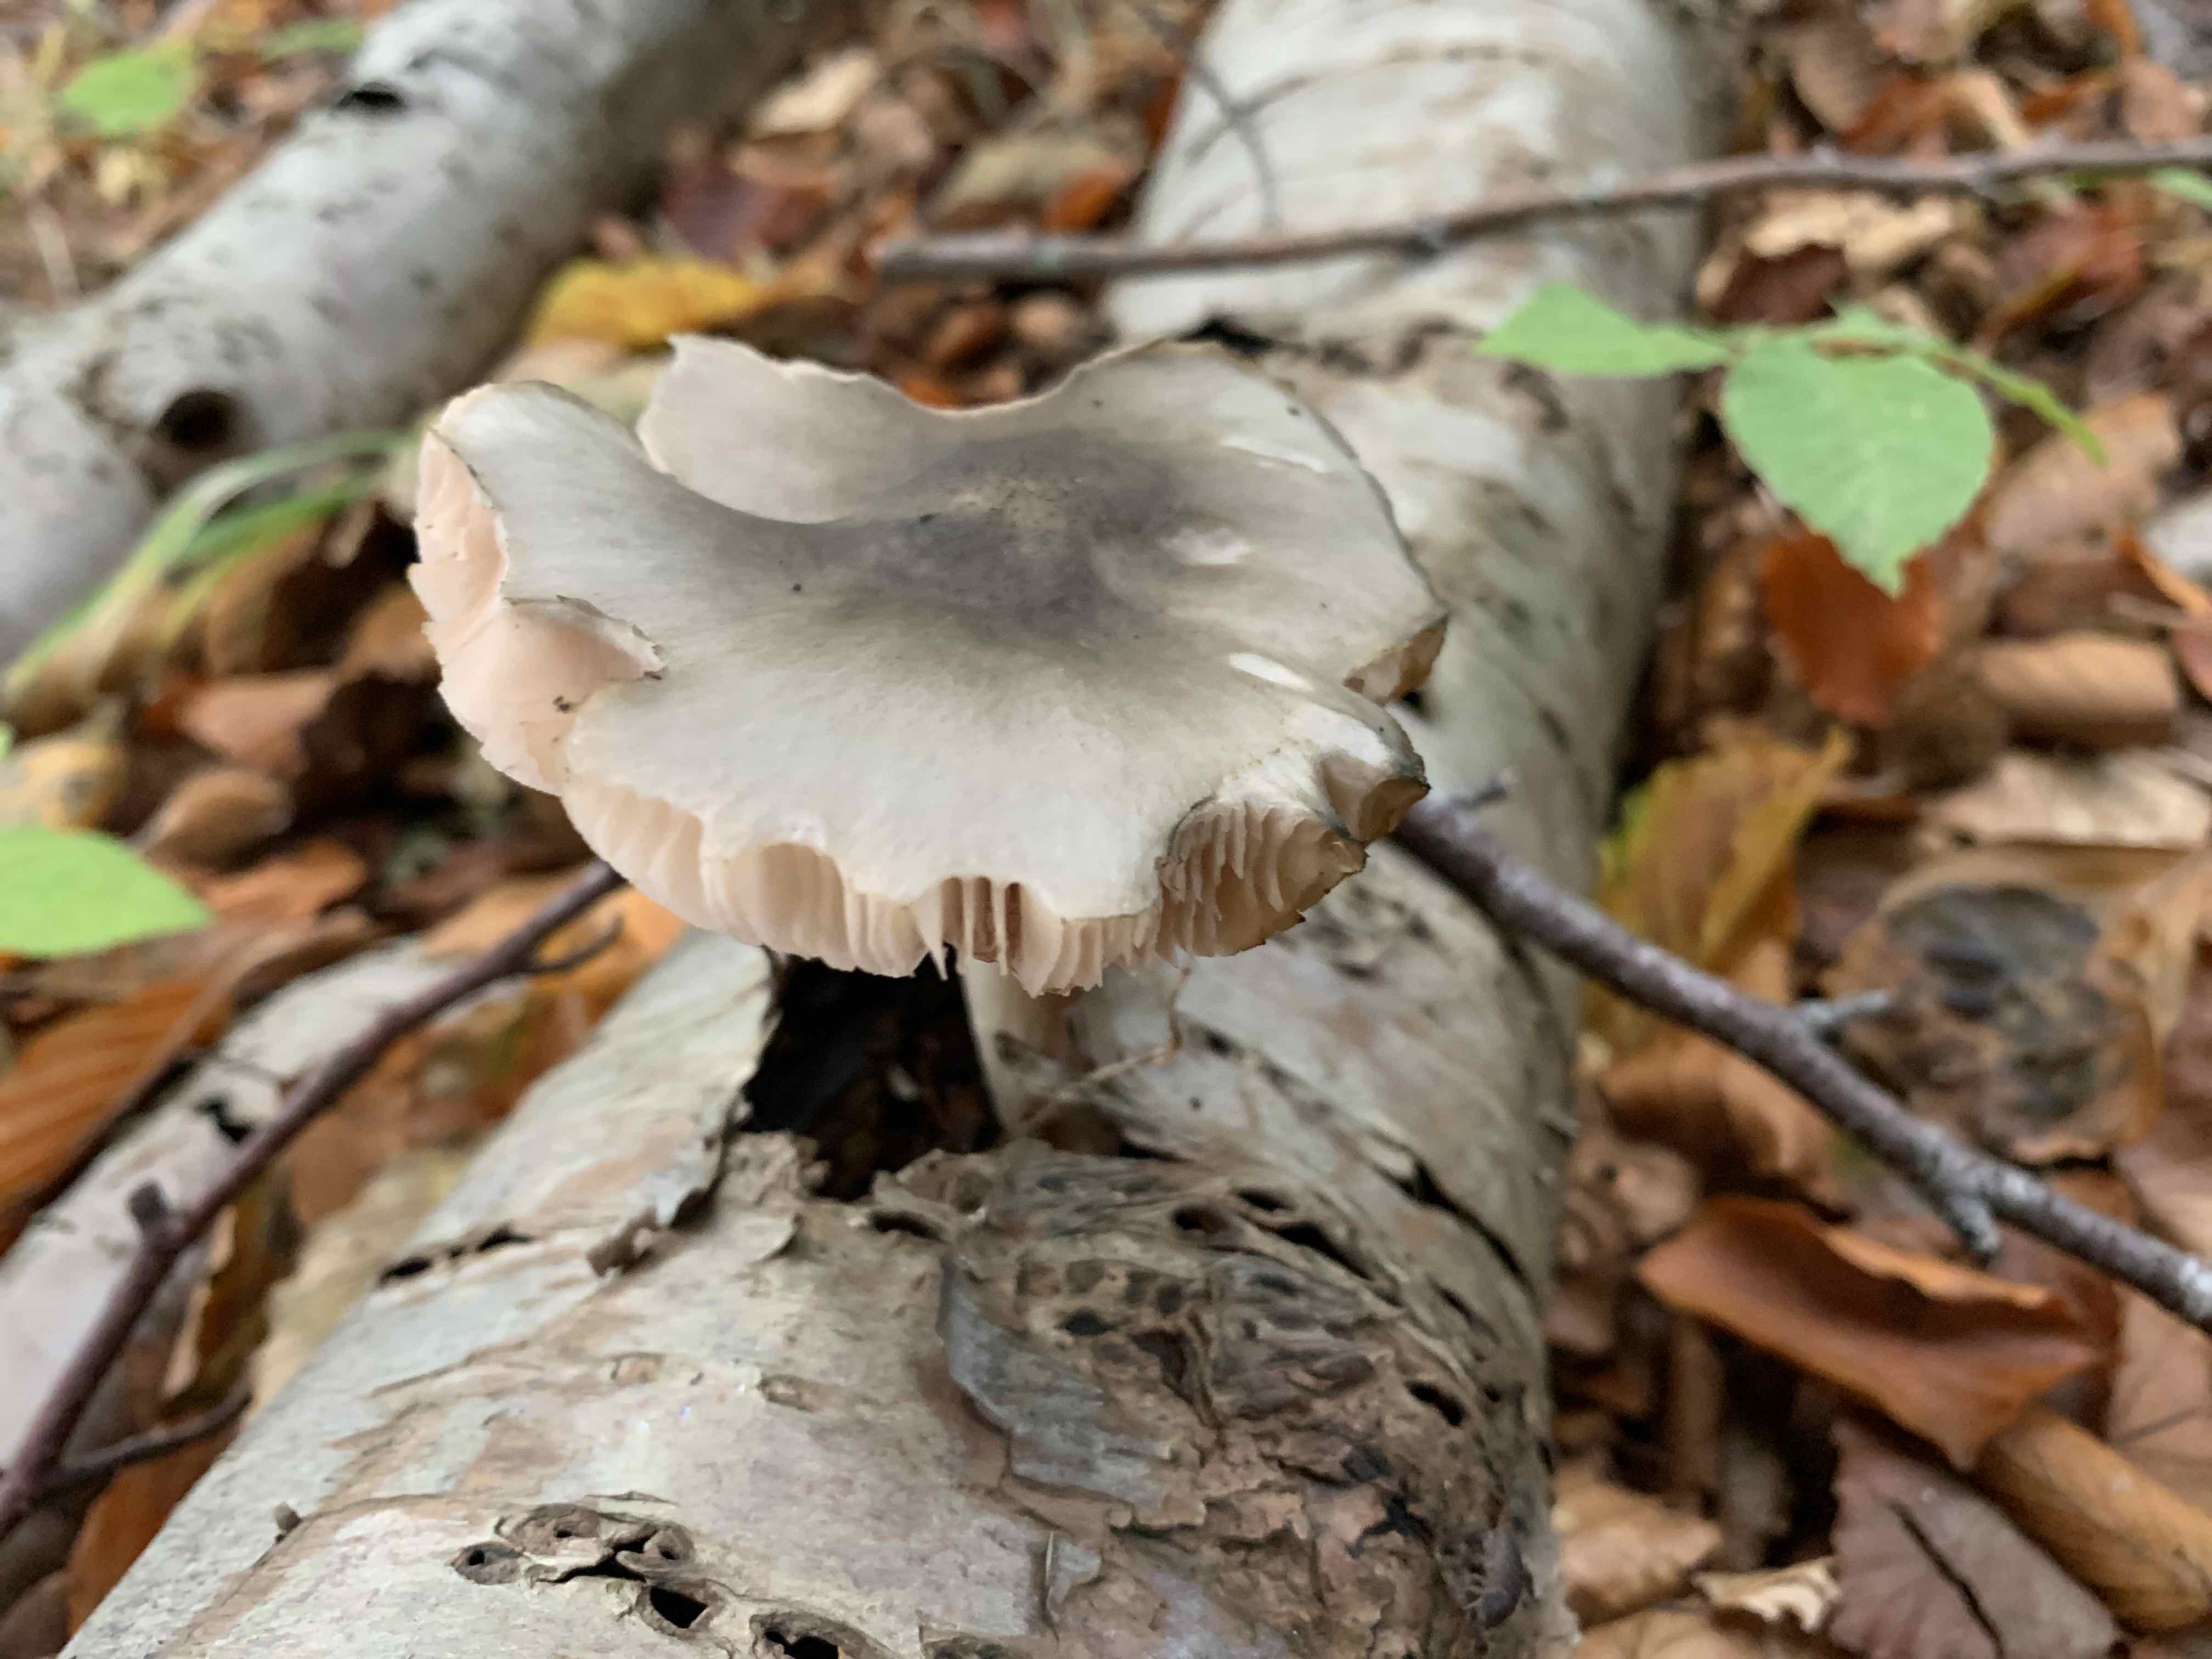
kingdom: Fungi
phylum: Basidiomycota
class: Agaricomycetes
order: Agaricales
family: Pluteaceae
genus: Pluteus
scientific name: Pluteus salicinus
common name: stiv skærmhat
